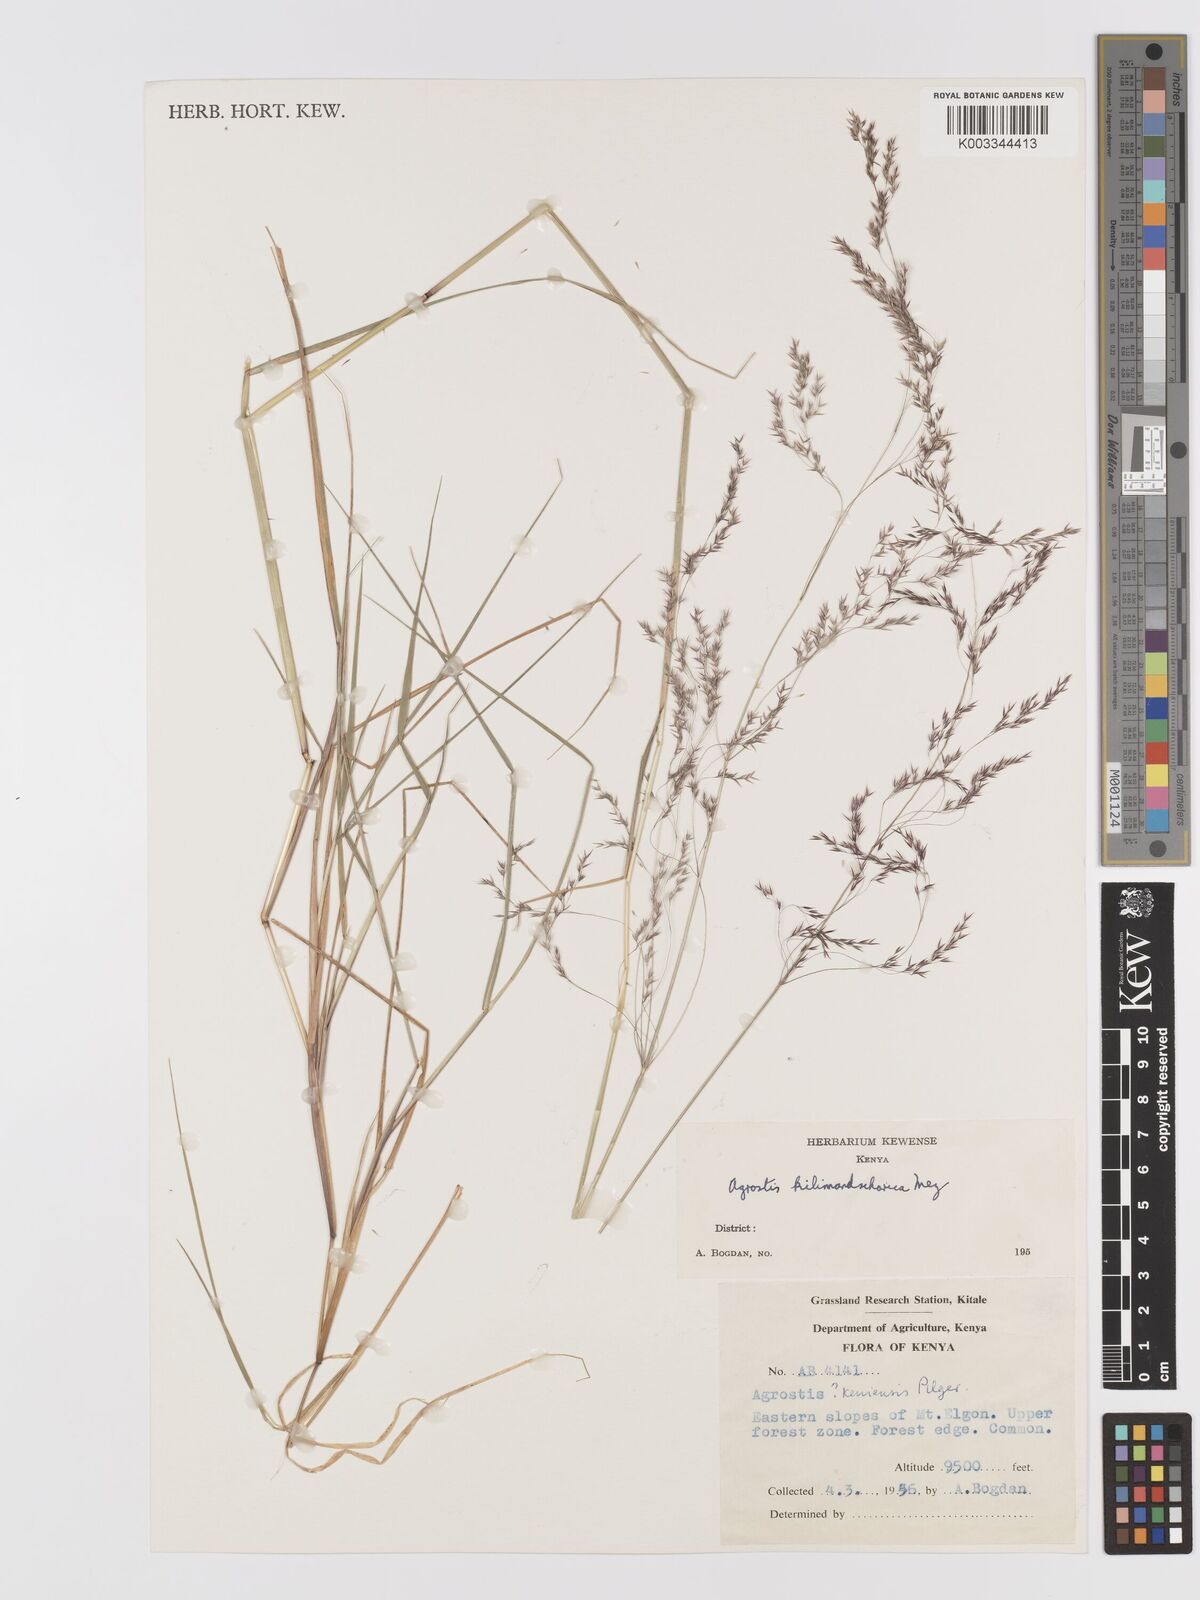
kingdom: Plantae
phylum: Tracheophyta
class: Liliopsida
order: Poales
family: Poaceae
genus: Agrostis
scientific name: Agrostis kilimandscharica
